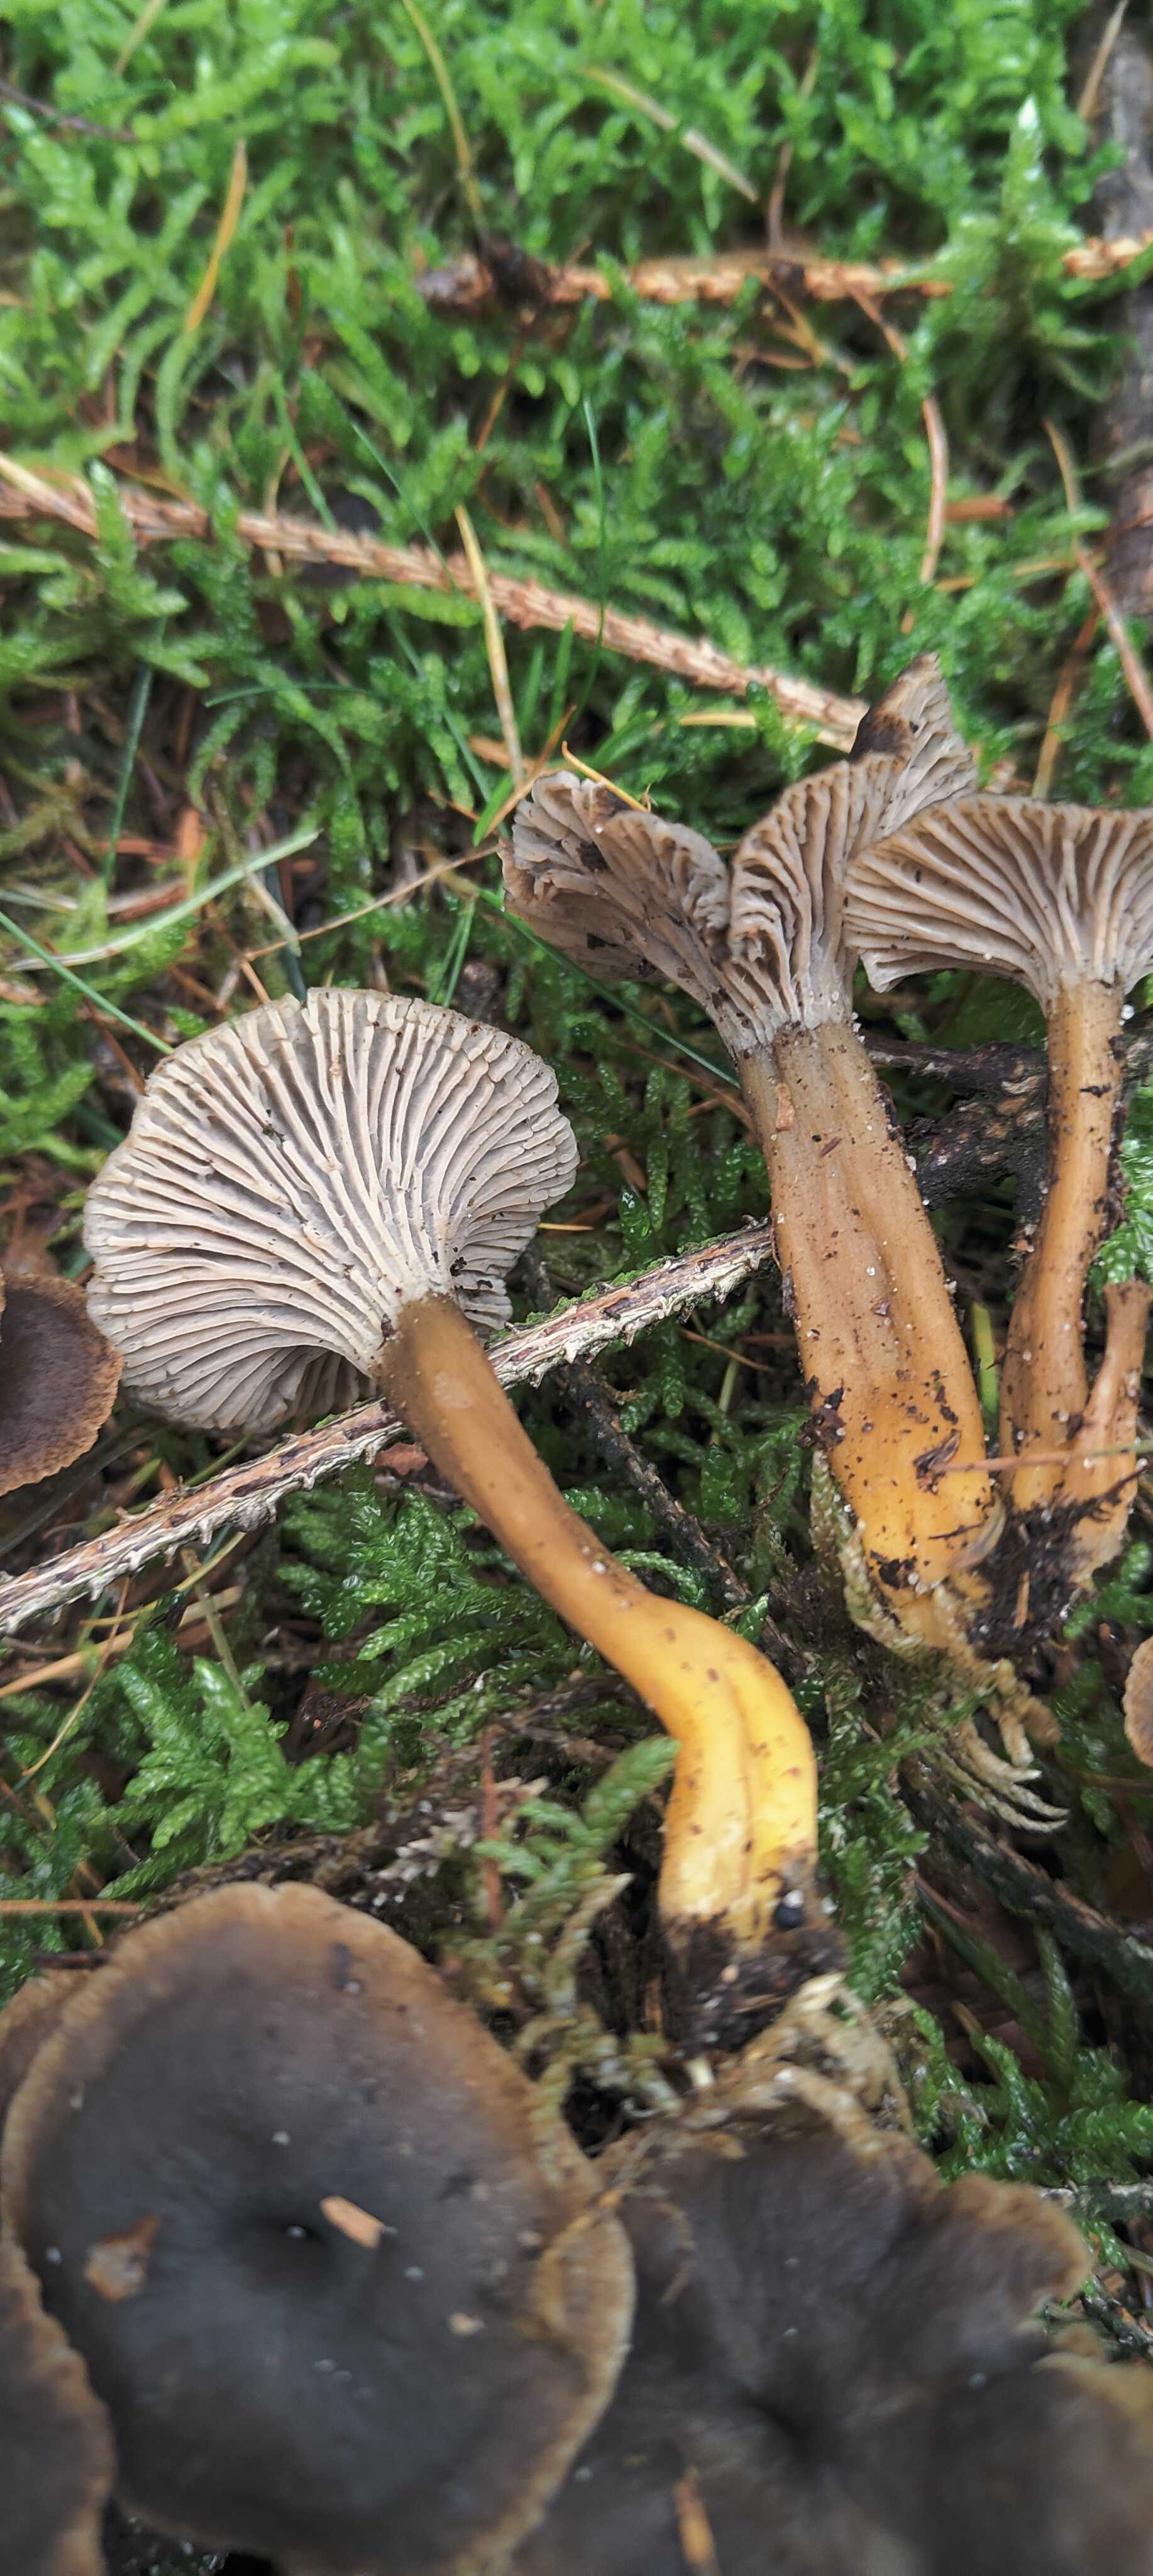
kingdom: Fungi
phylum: Basidiomycota
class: Agaricomycetes
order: Cantharellales
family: Hydnaceae
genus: Craterellus
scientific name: Craterellus tubaeformis
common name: tragt-kantarel
